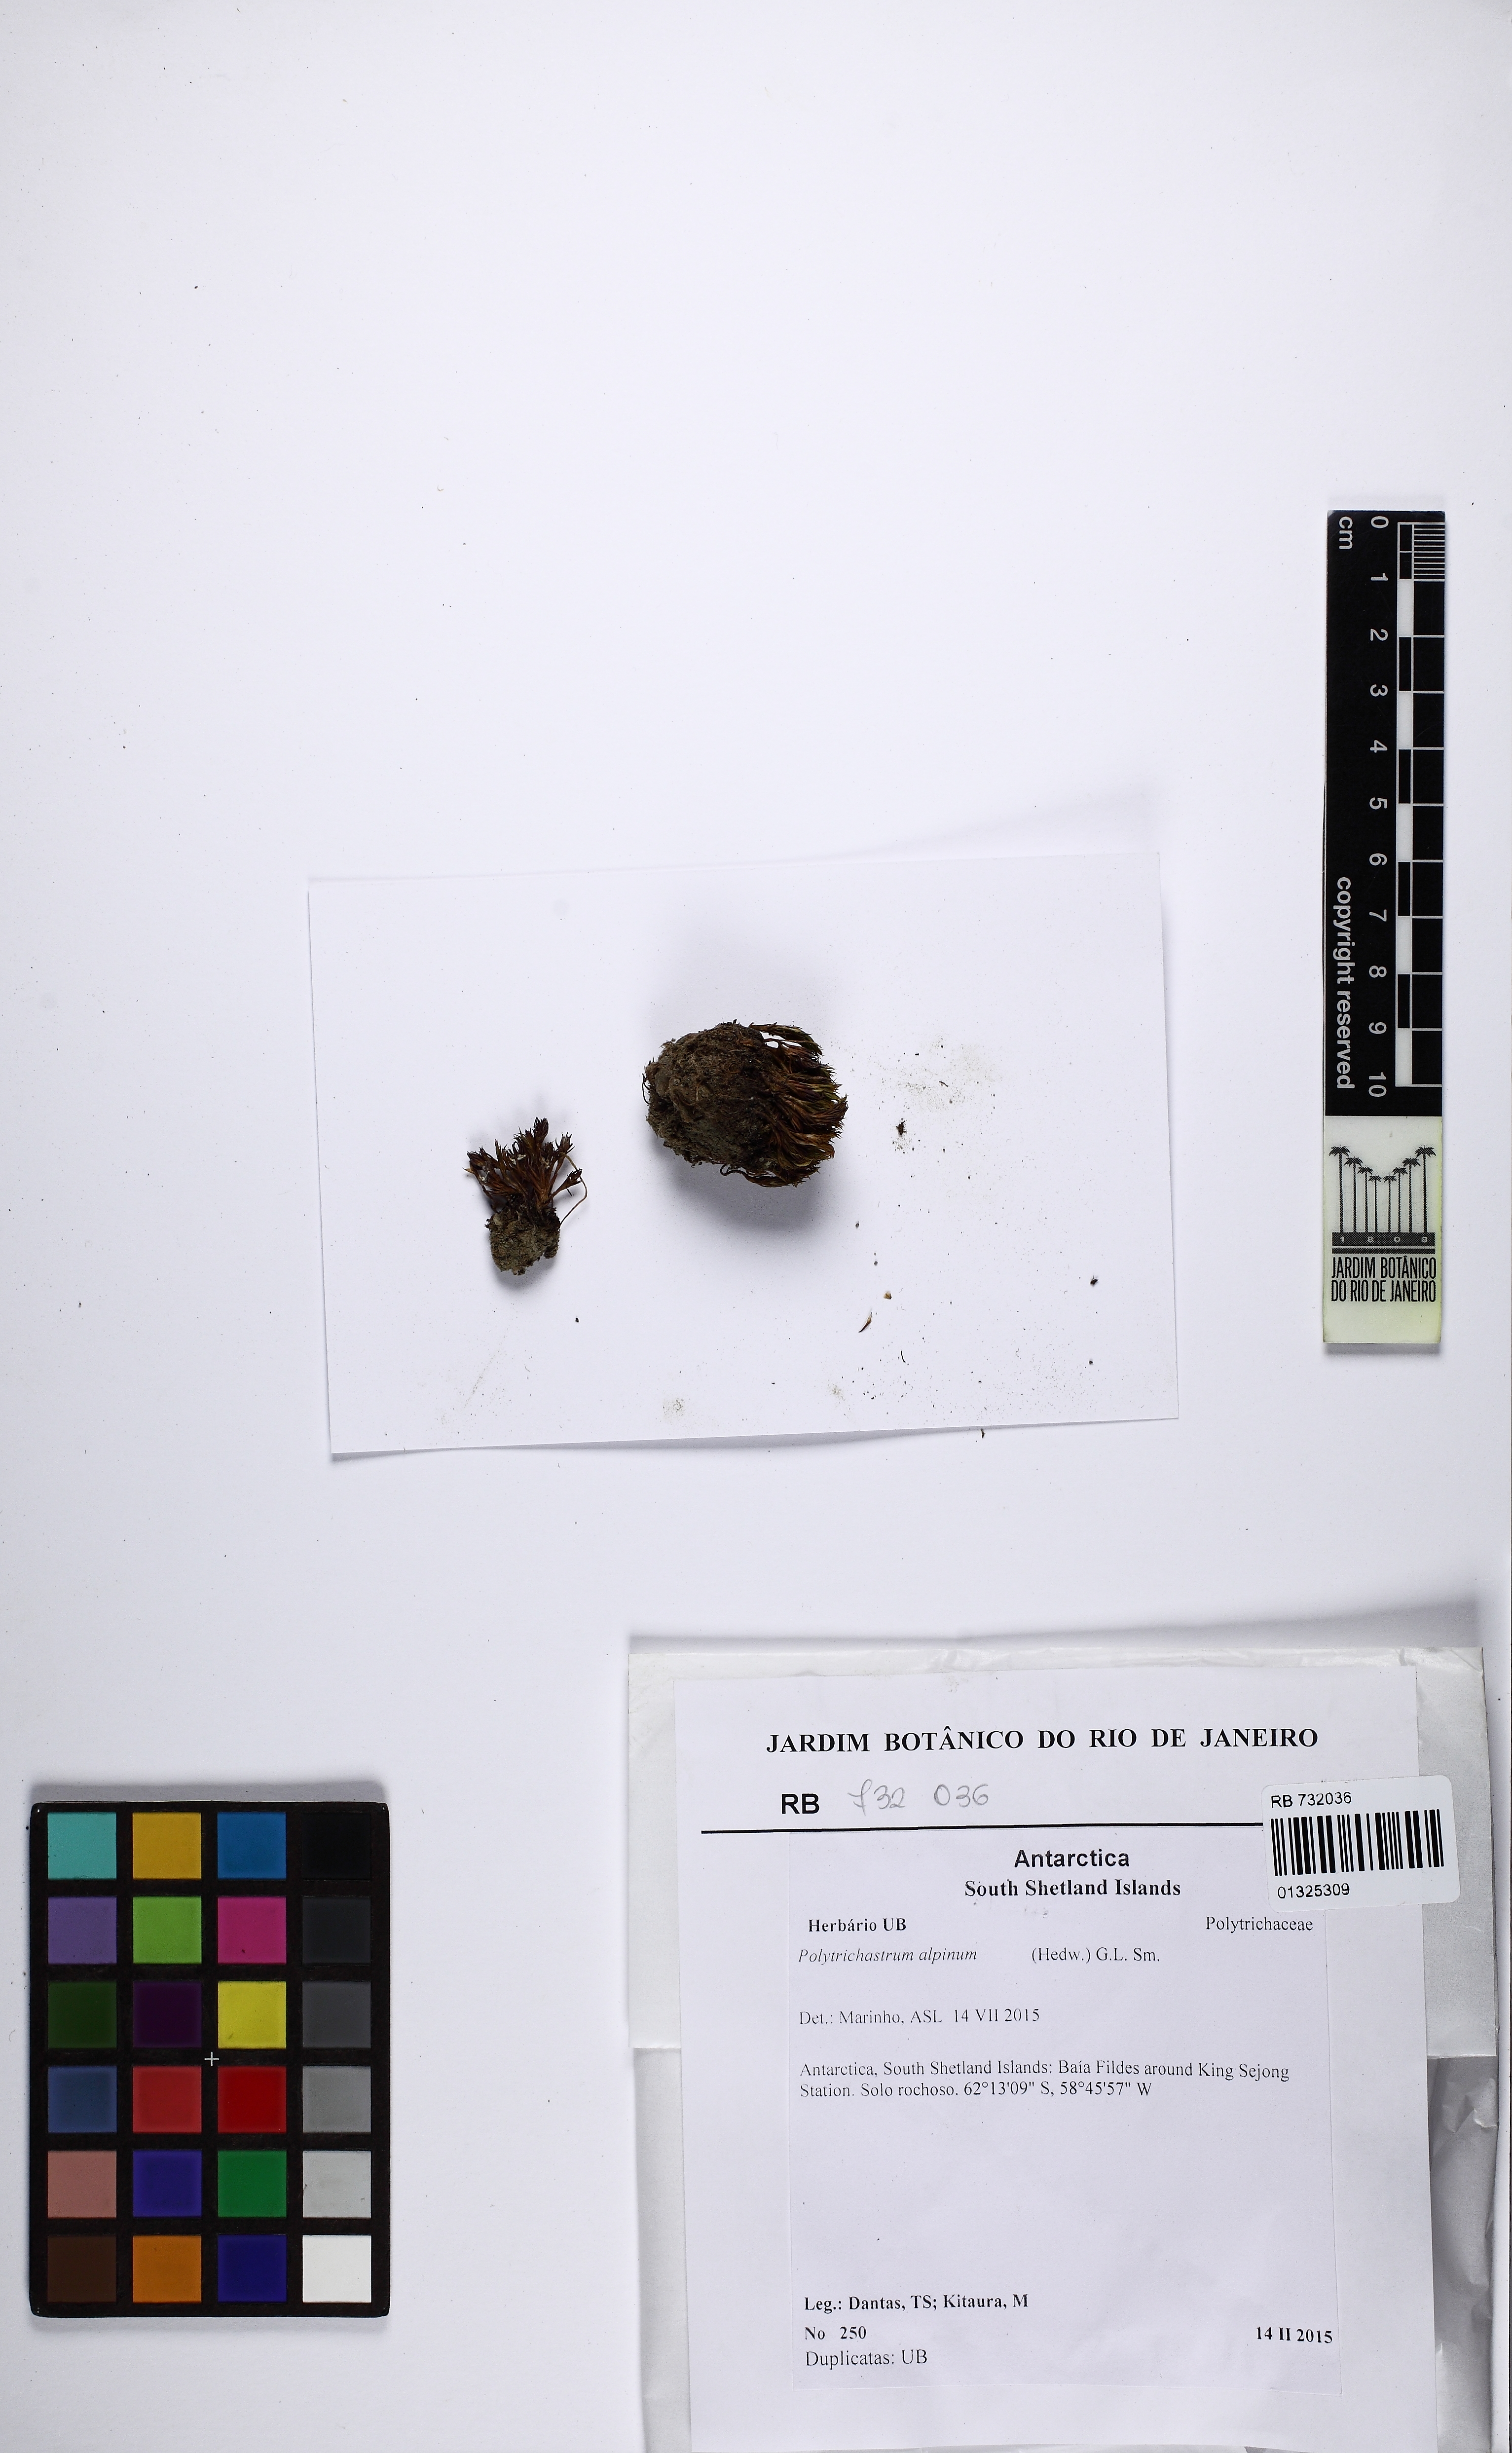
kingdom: Plantae
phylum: Bryophyta
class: Polytrichopsida
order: Polytrichales
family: Polytrichaceae
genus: Polytrichastrum
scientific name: Polytrichastrum alpinum
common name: Alpine haircap
